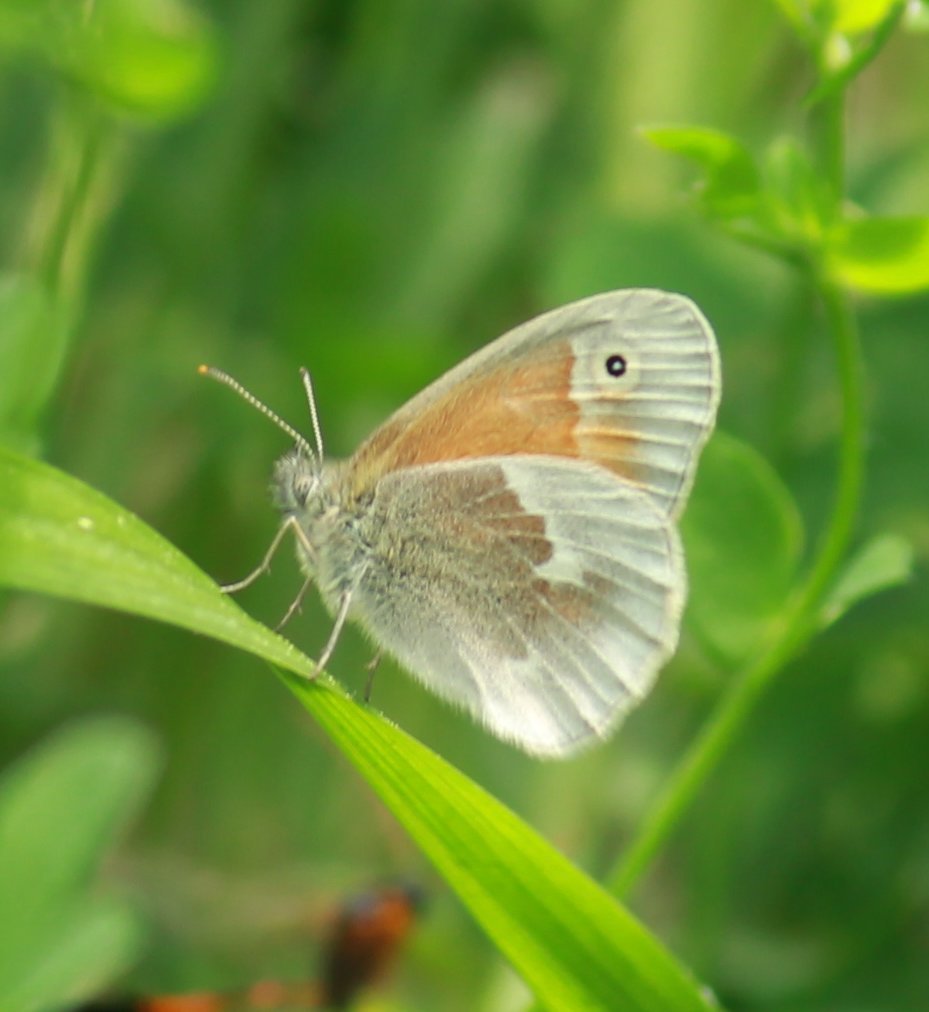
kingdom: Animalia
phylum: Arthropoda
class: Insecta
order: Lepidoptera
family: Nymphalidae
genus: Coenonympha
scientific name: Coenonympha tullia
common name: Large Heath
